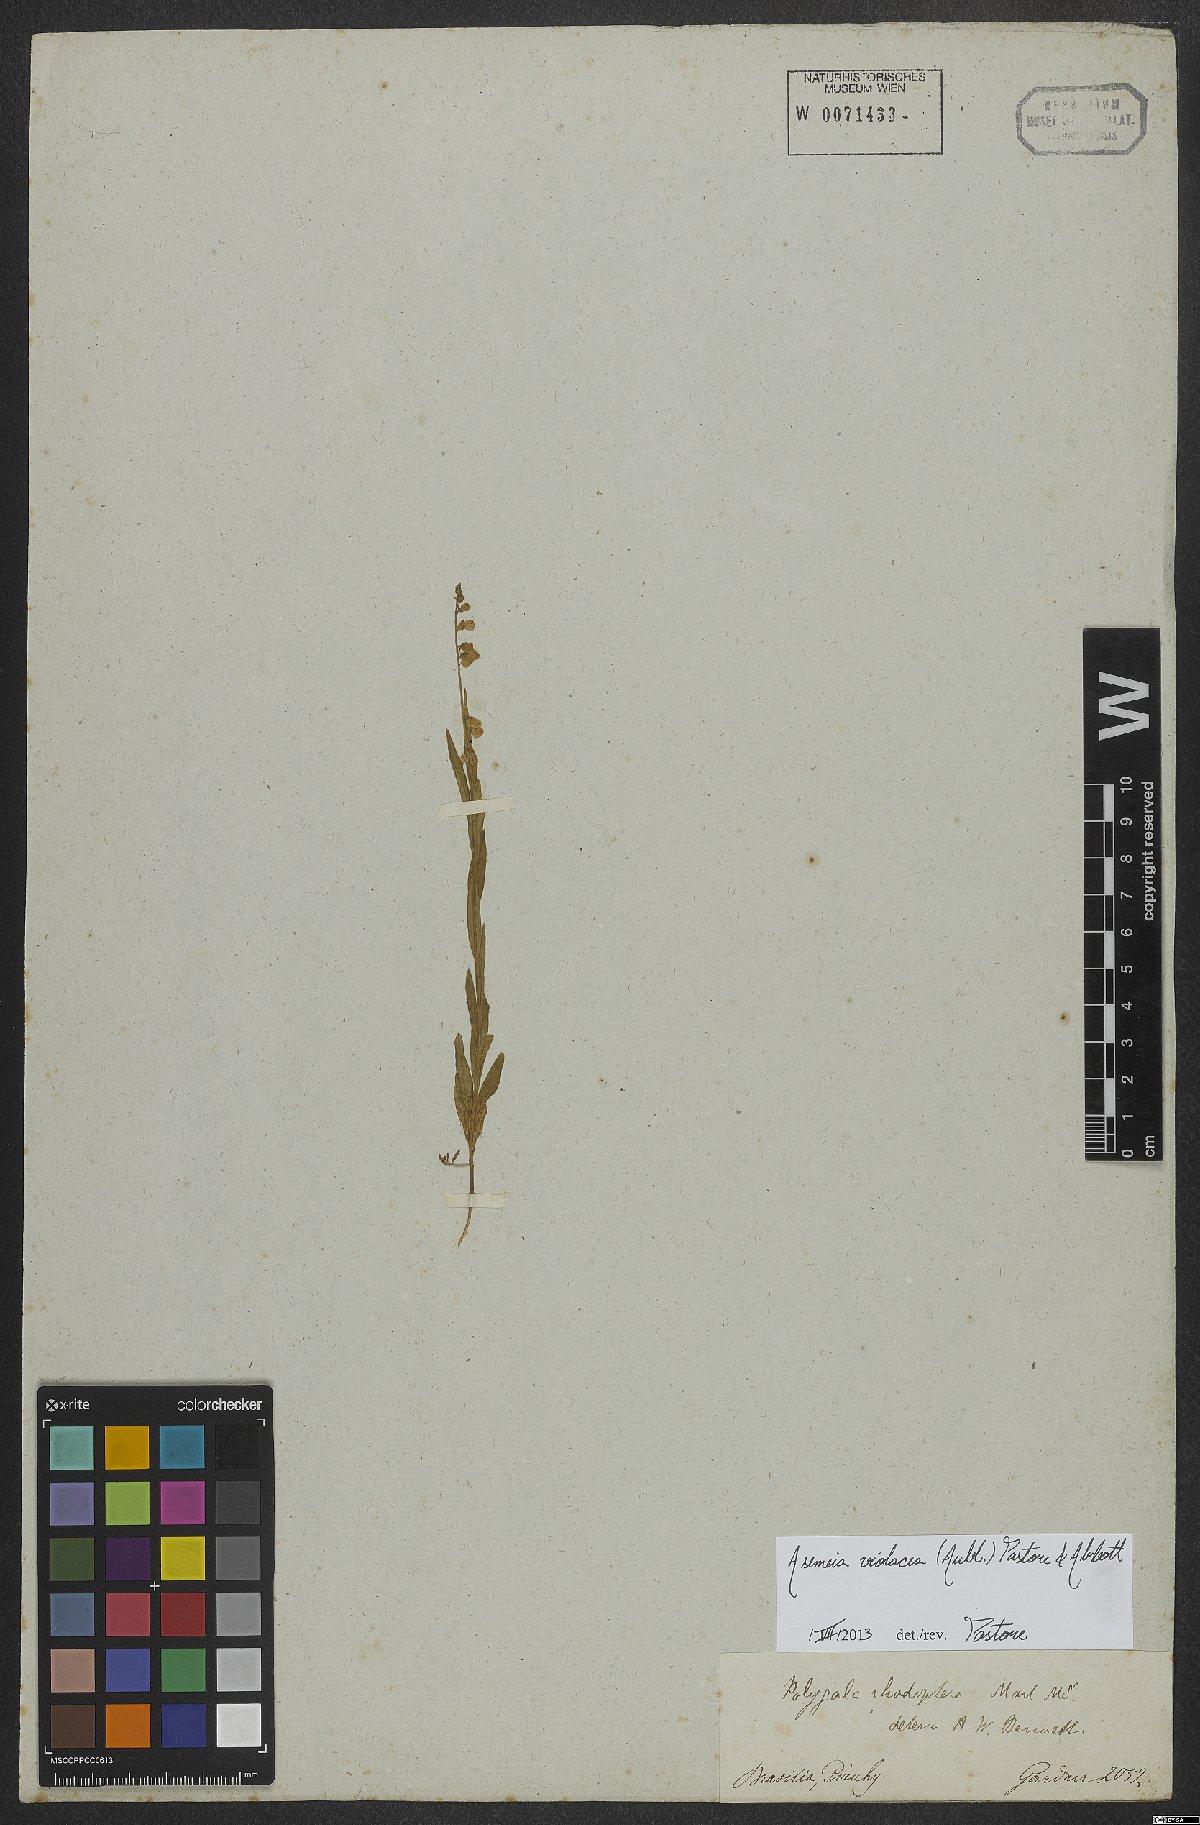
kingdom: Plantae
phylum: Tracheophyta
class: Magnoliopsida
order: Fabales
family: Polygalaceae
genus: Asemeia
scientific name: Asemeia violacea
